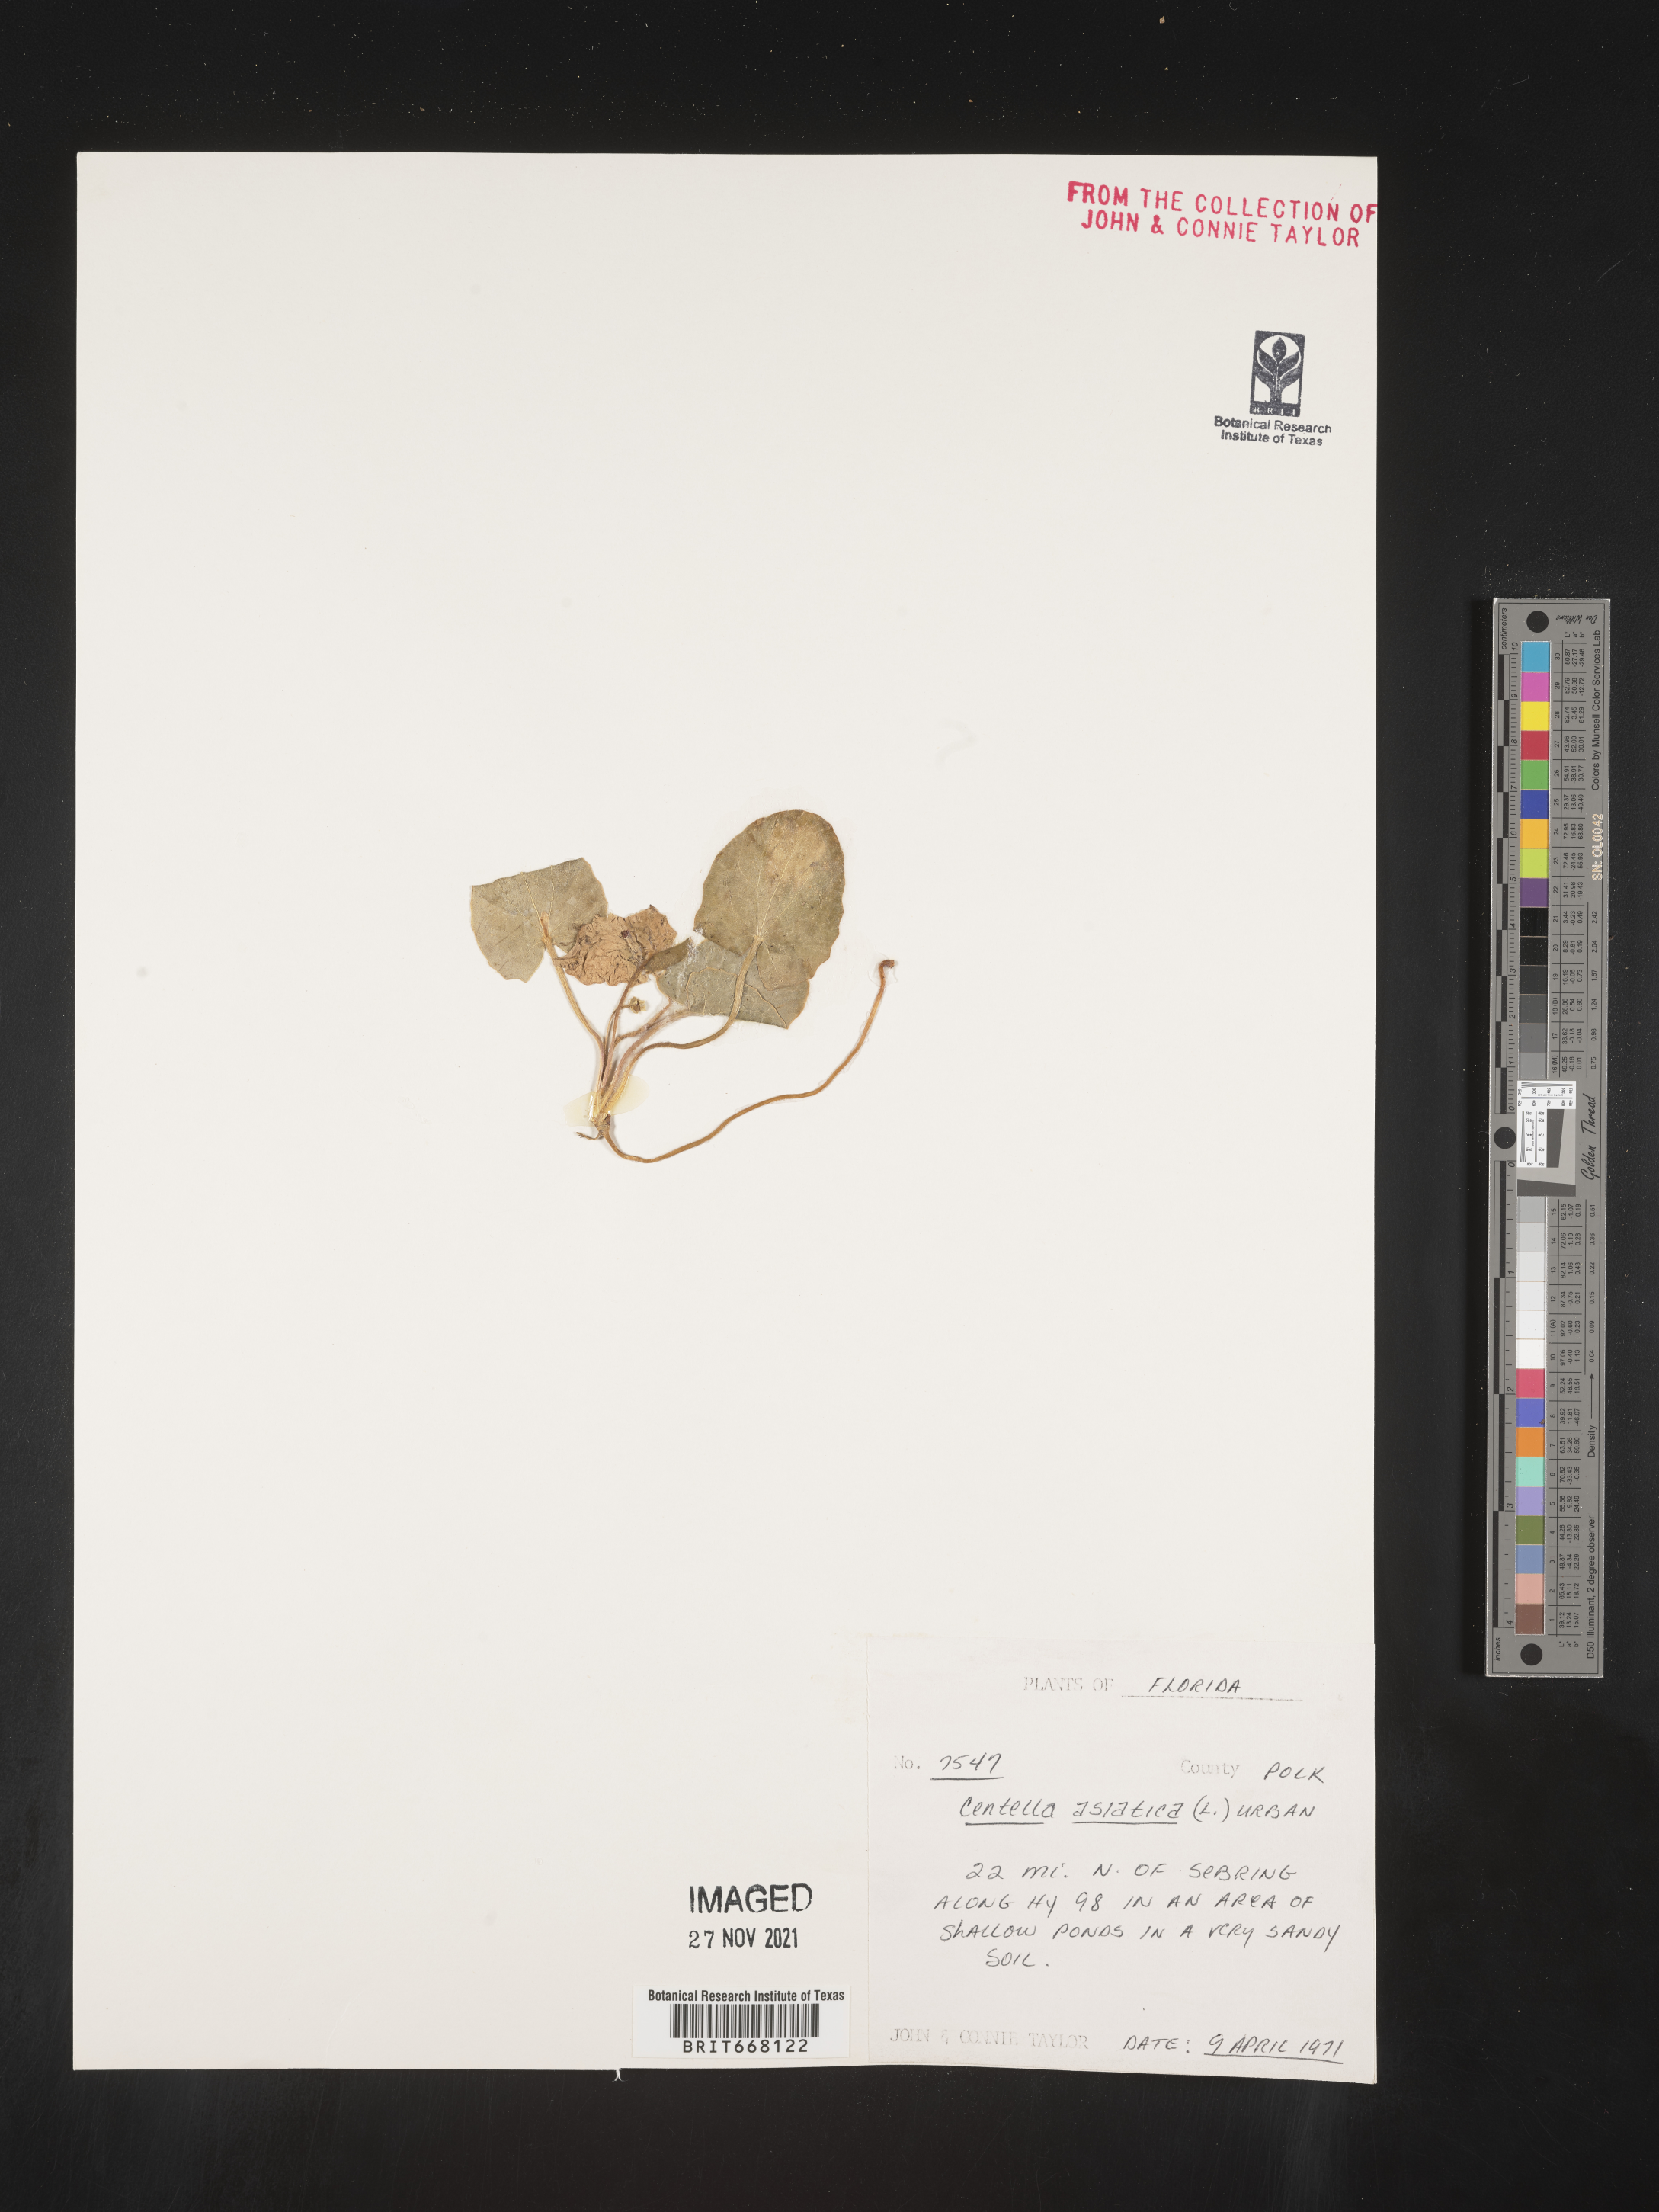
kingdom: Plantae
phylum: Tracheophyta
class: Magnoliopsida
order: Apiales
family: Apiaceae
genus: Centella
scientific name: Centella
